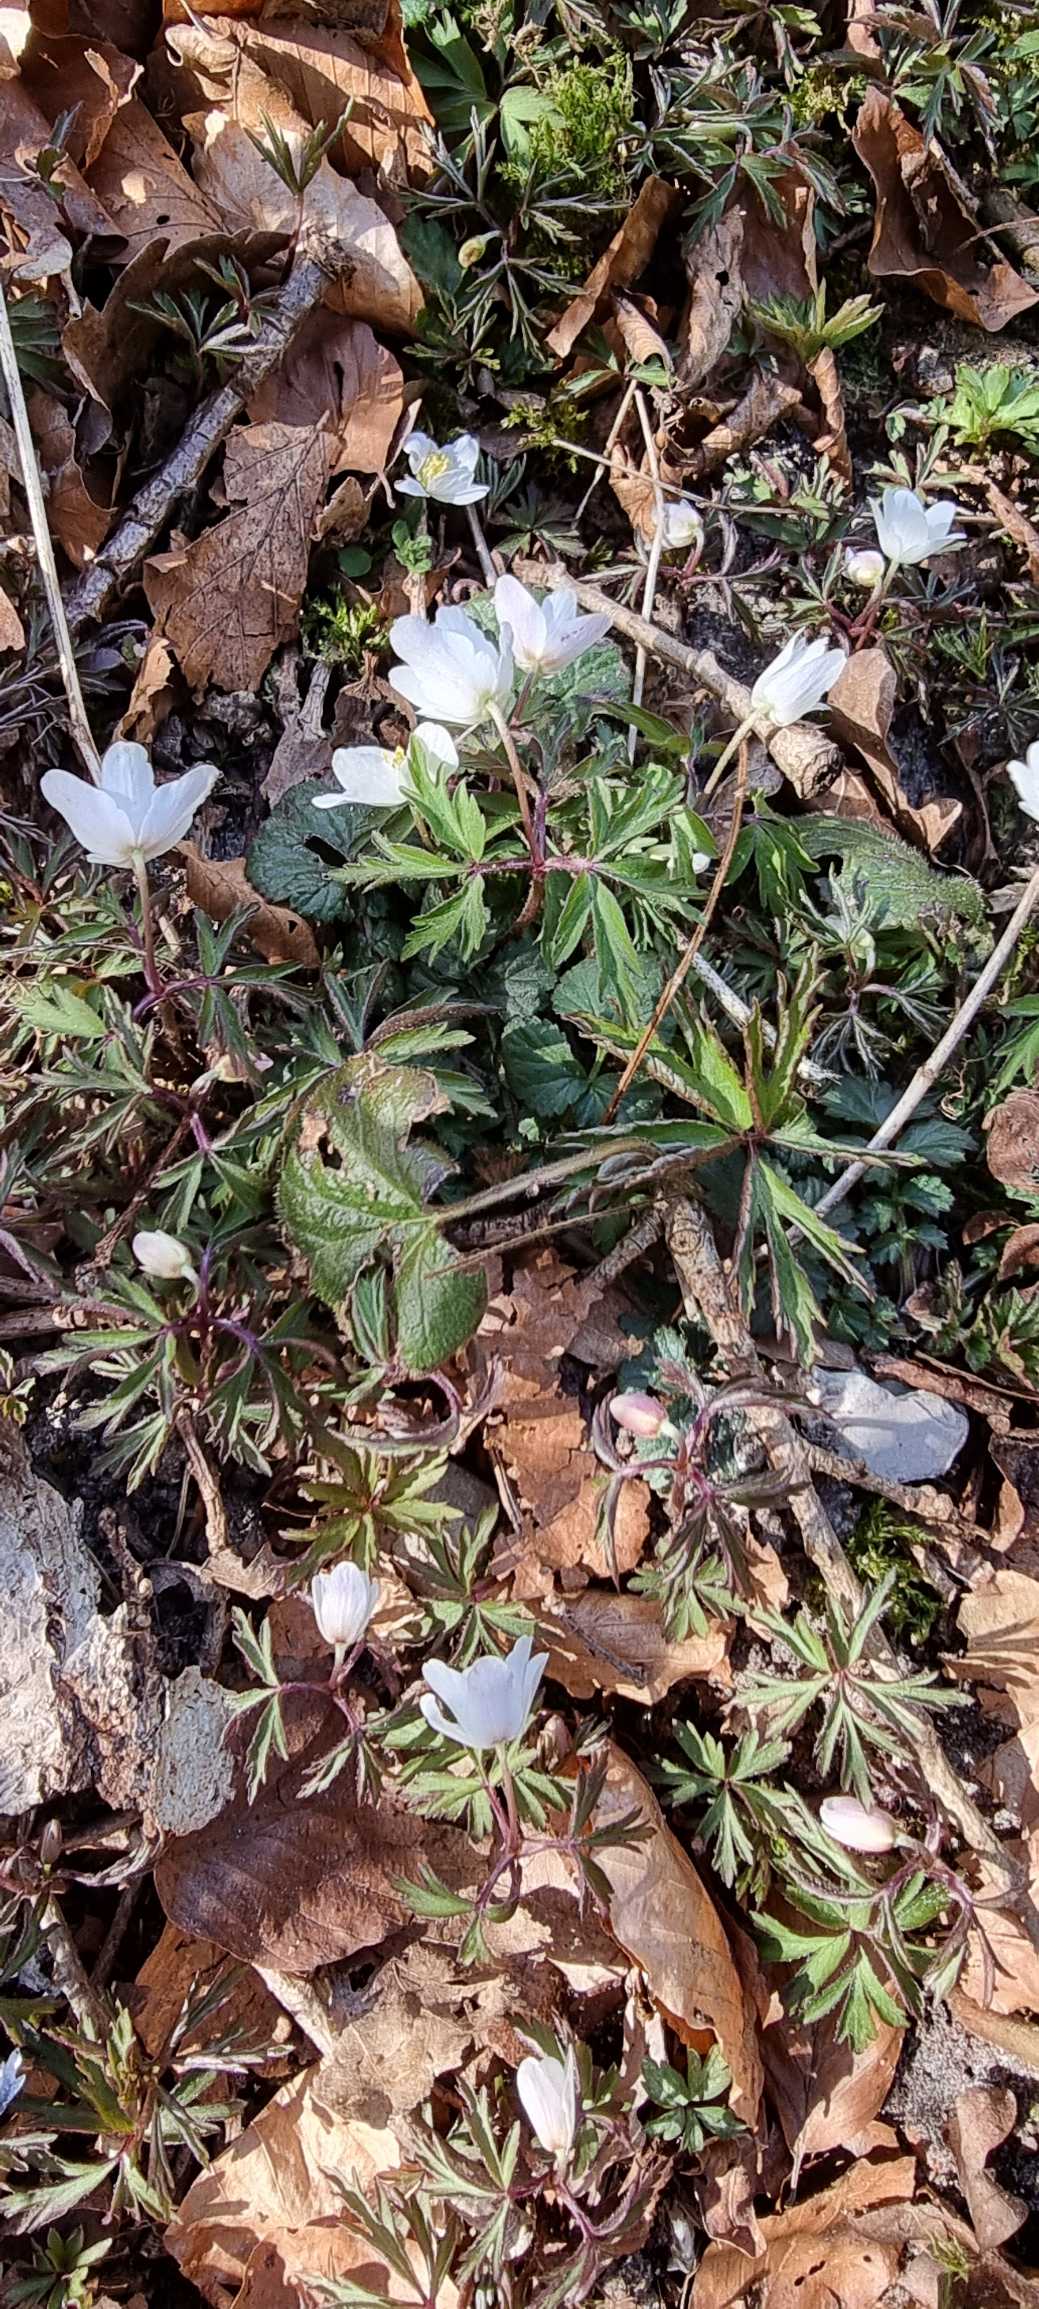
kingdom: Plantae
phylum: Tracheophyta
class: Magnoliopsida
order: Ranunculales
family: Ranunculaceae
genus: Anemone
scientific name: Anemone nemorosa
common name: Hvid anemone
